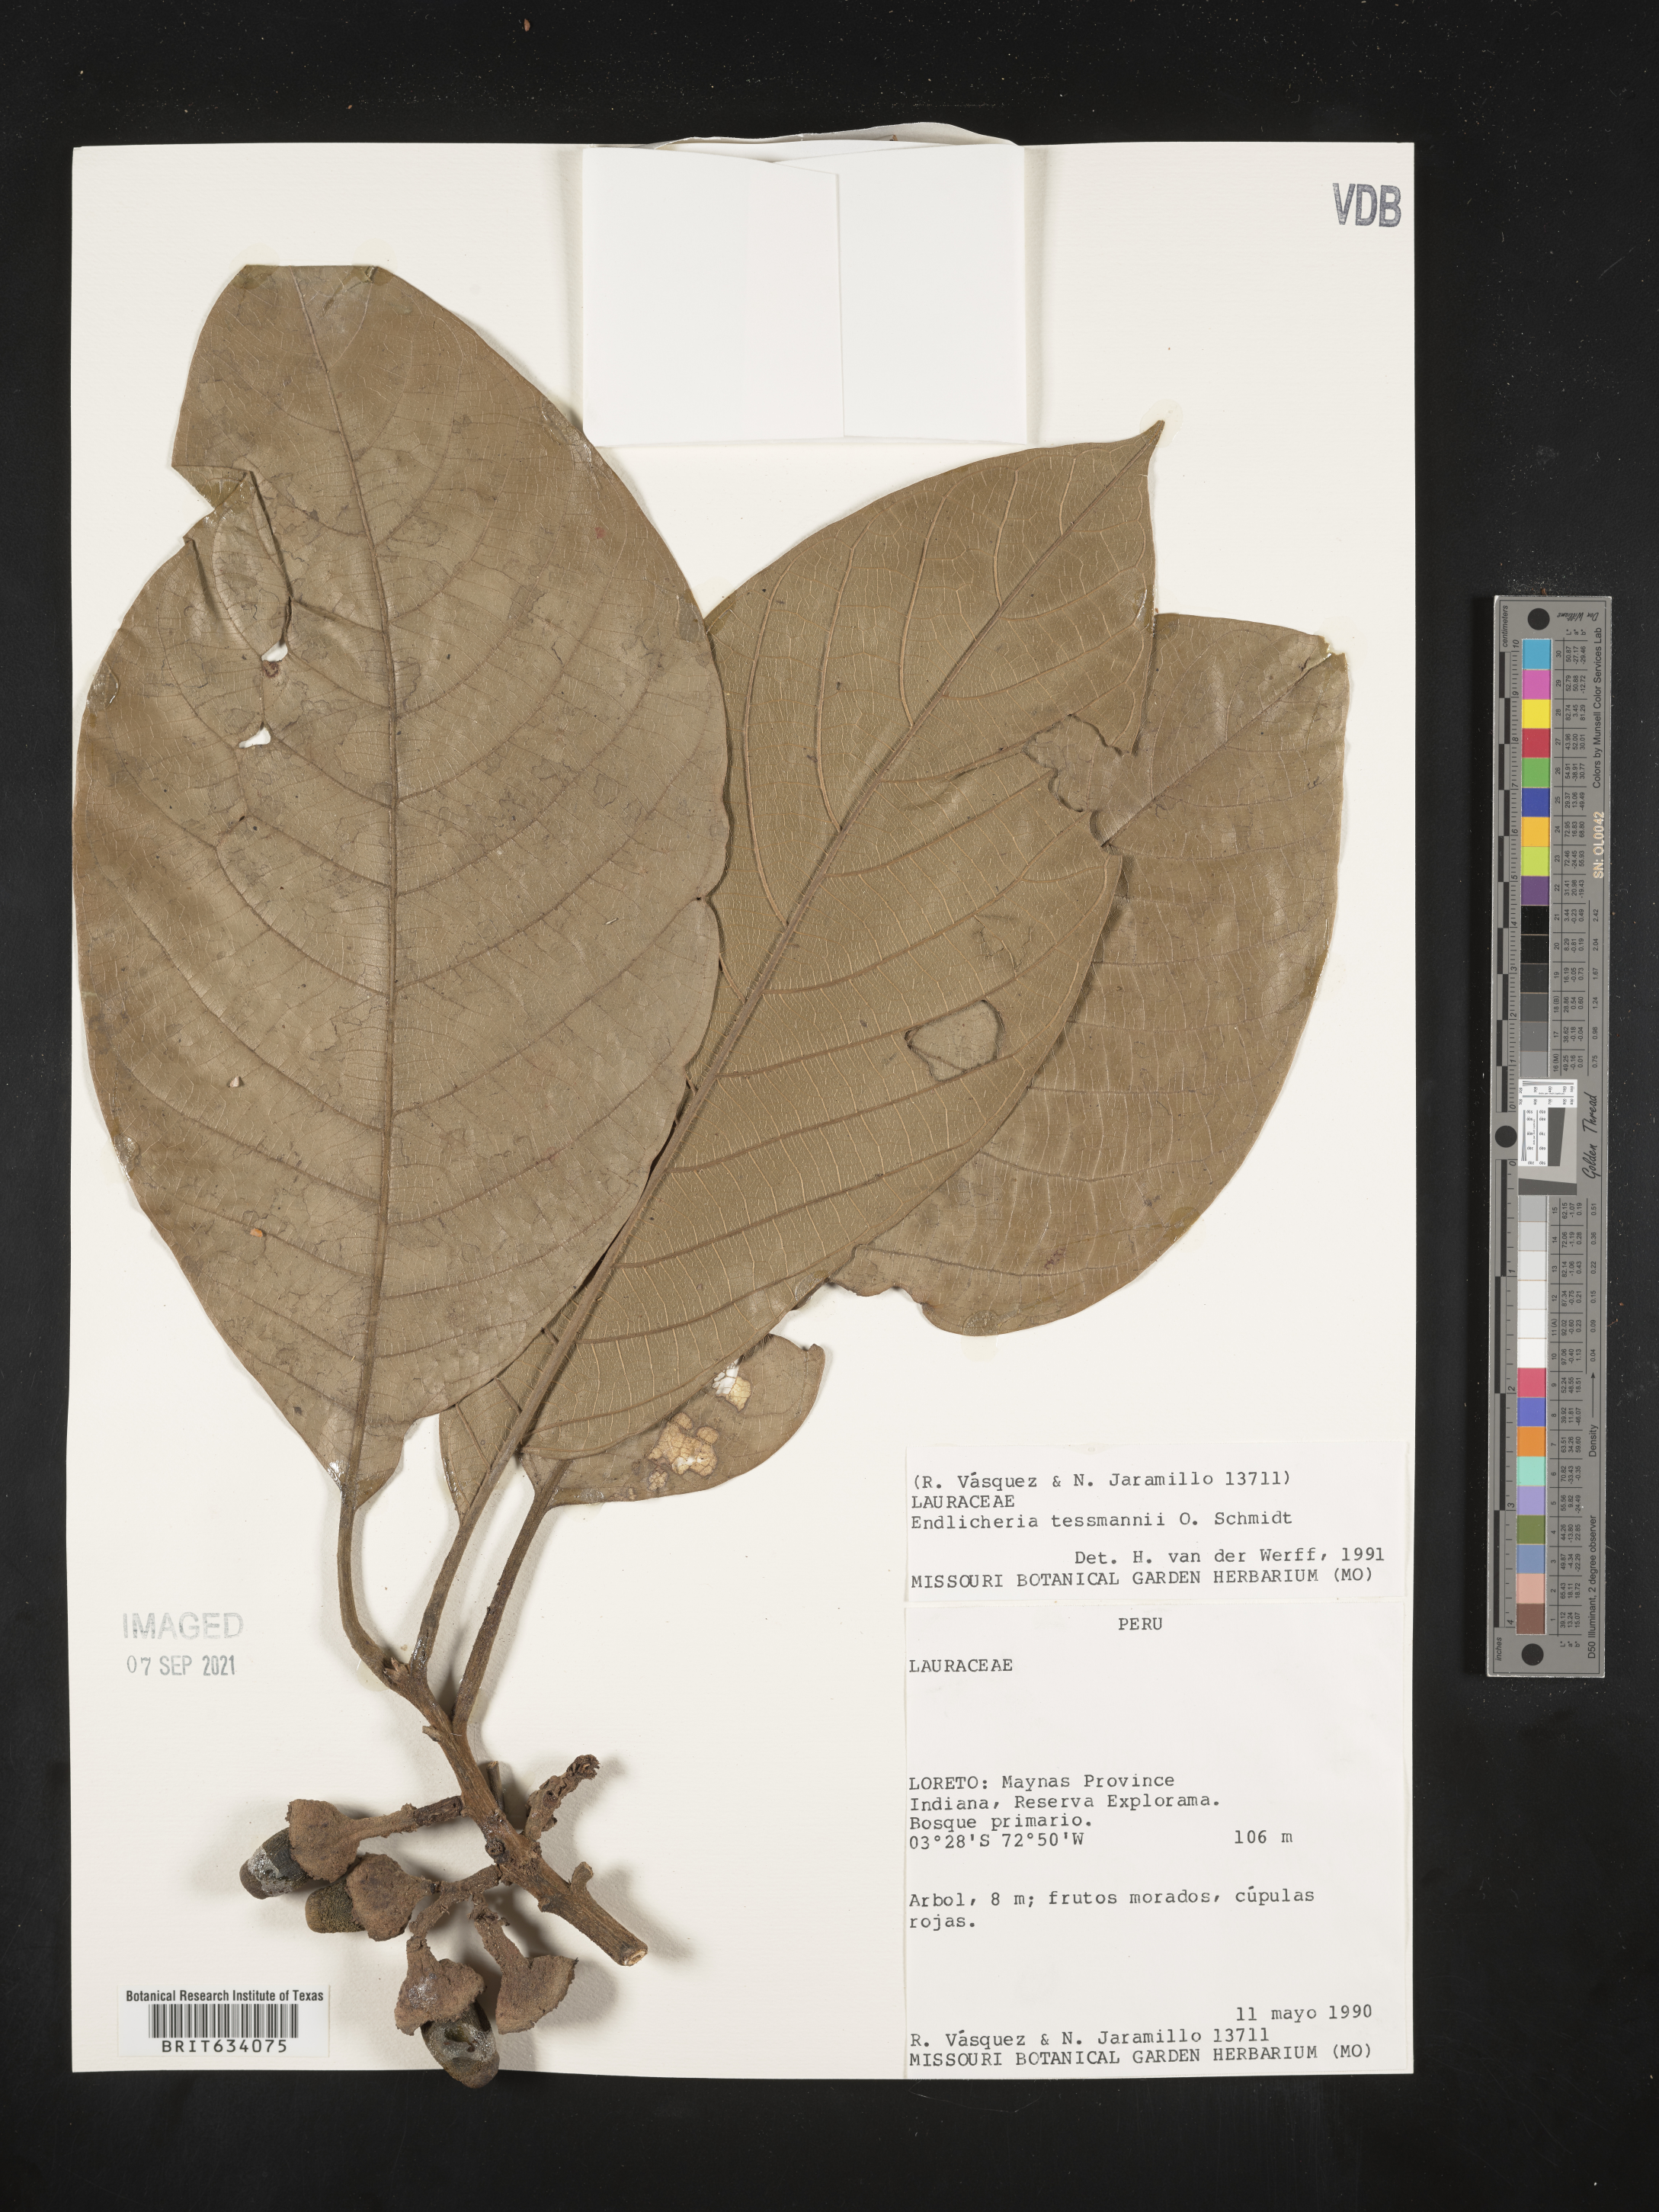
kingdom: Plantae
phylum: Tracheophyta
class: Magnoliopsida
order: Laurales
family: Lauraceae
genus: Endlicheria
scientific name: Endlicheria
